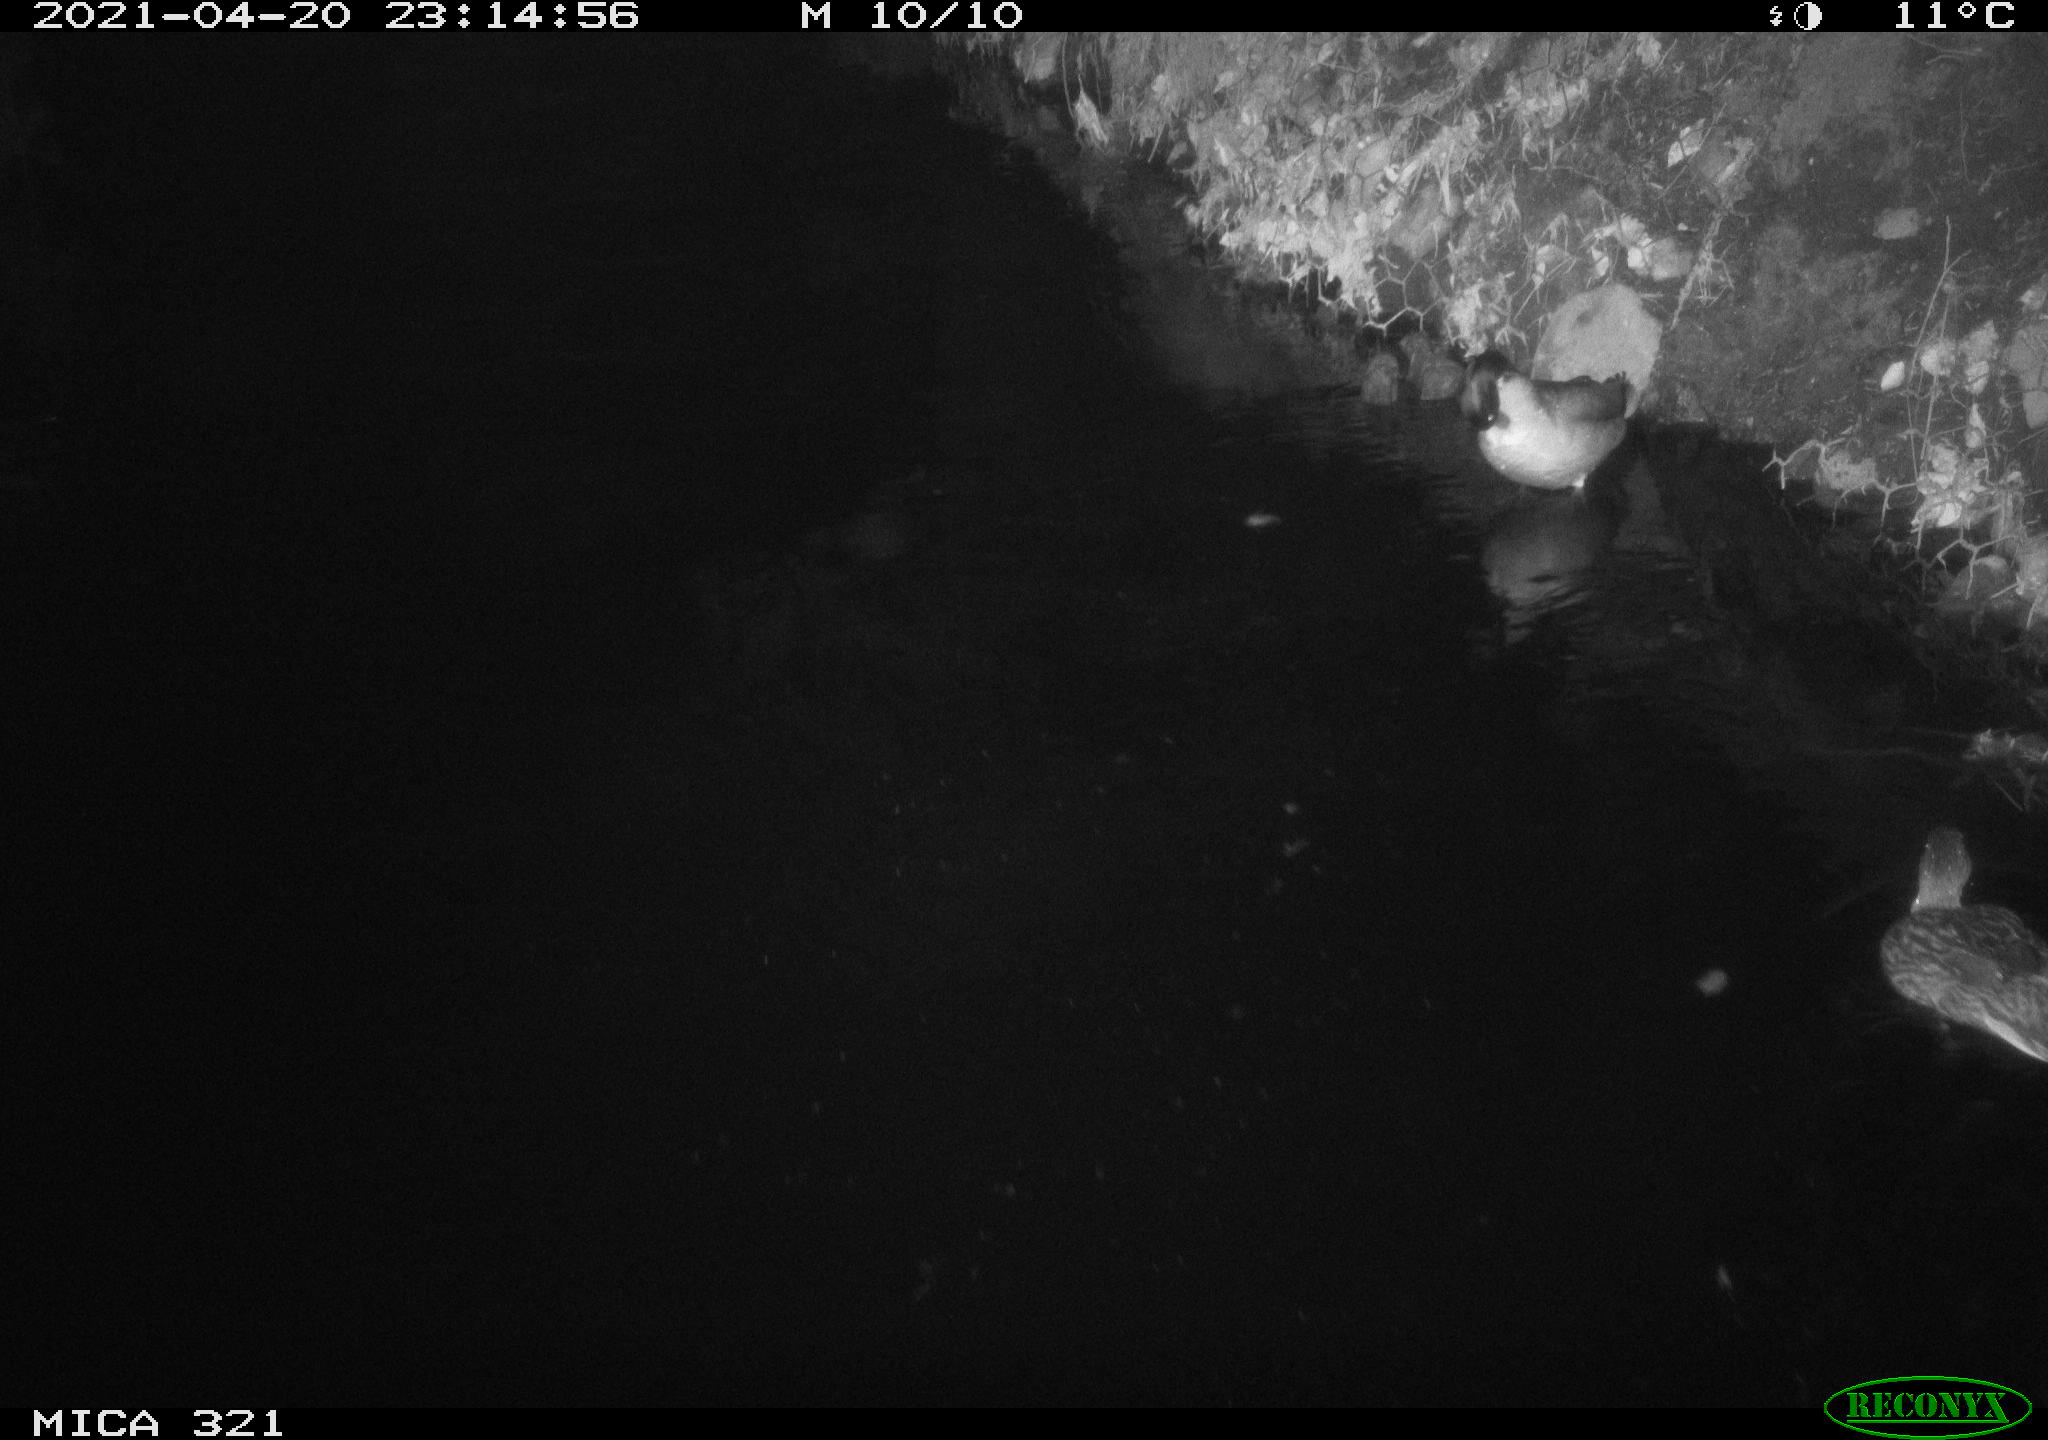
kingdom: Animalia
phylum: Chordata
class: Aves
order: Anseriformes
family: Anatidae
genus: Anas
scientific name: Anas
